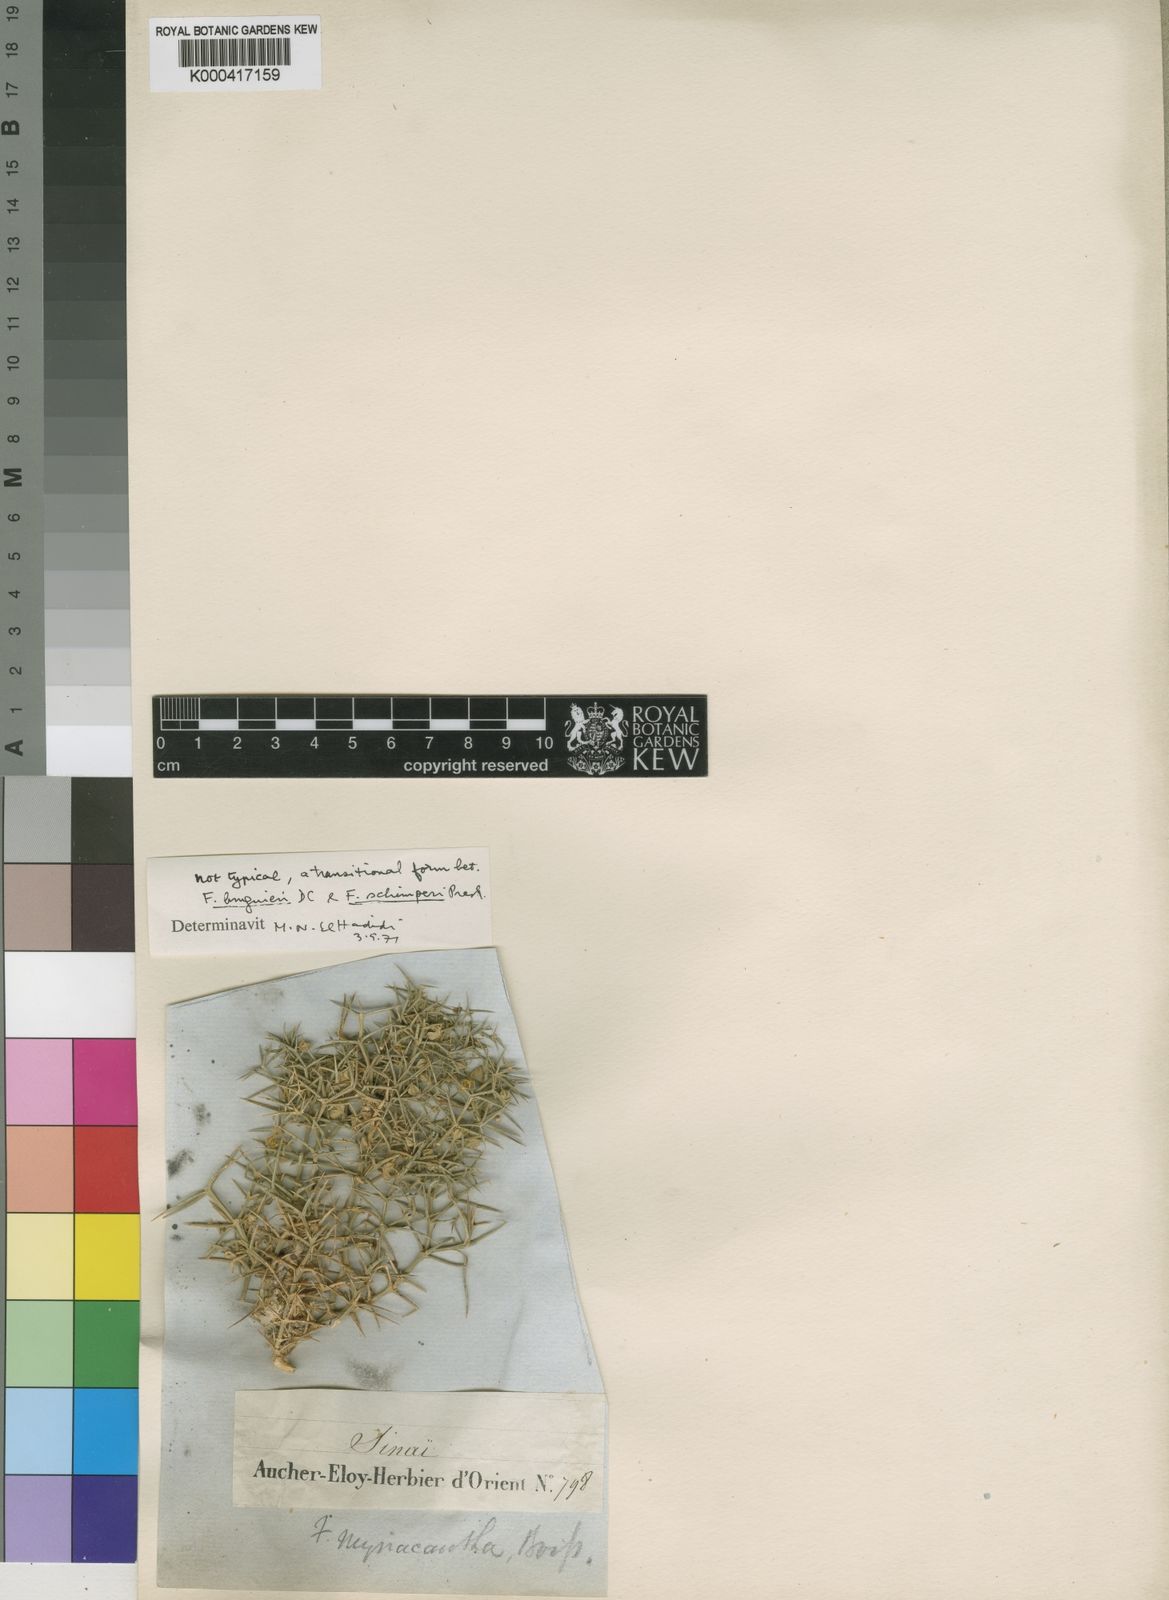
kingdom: Plantae
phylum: Tracheophyta
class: Magnoliopsida
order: Zygophyllales
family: Zygophyllaceae
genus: Fagonia
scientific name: Fagonia bruguieri
